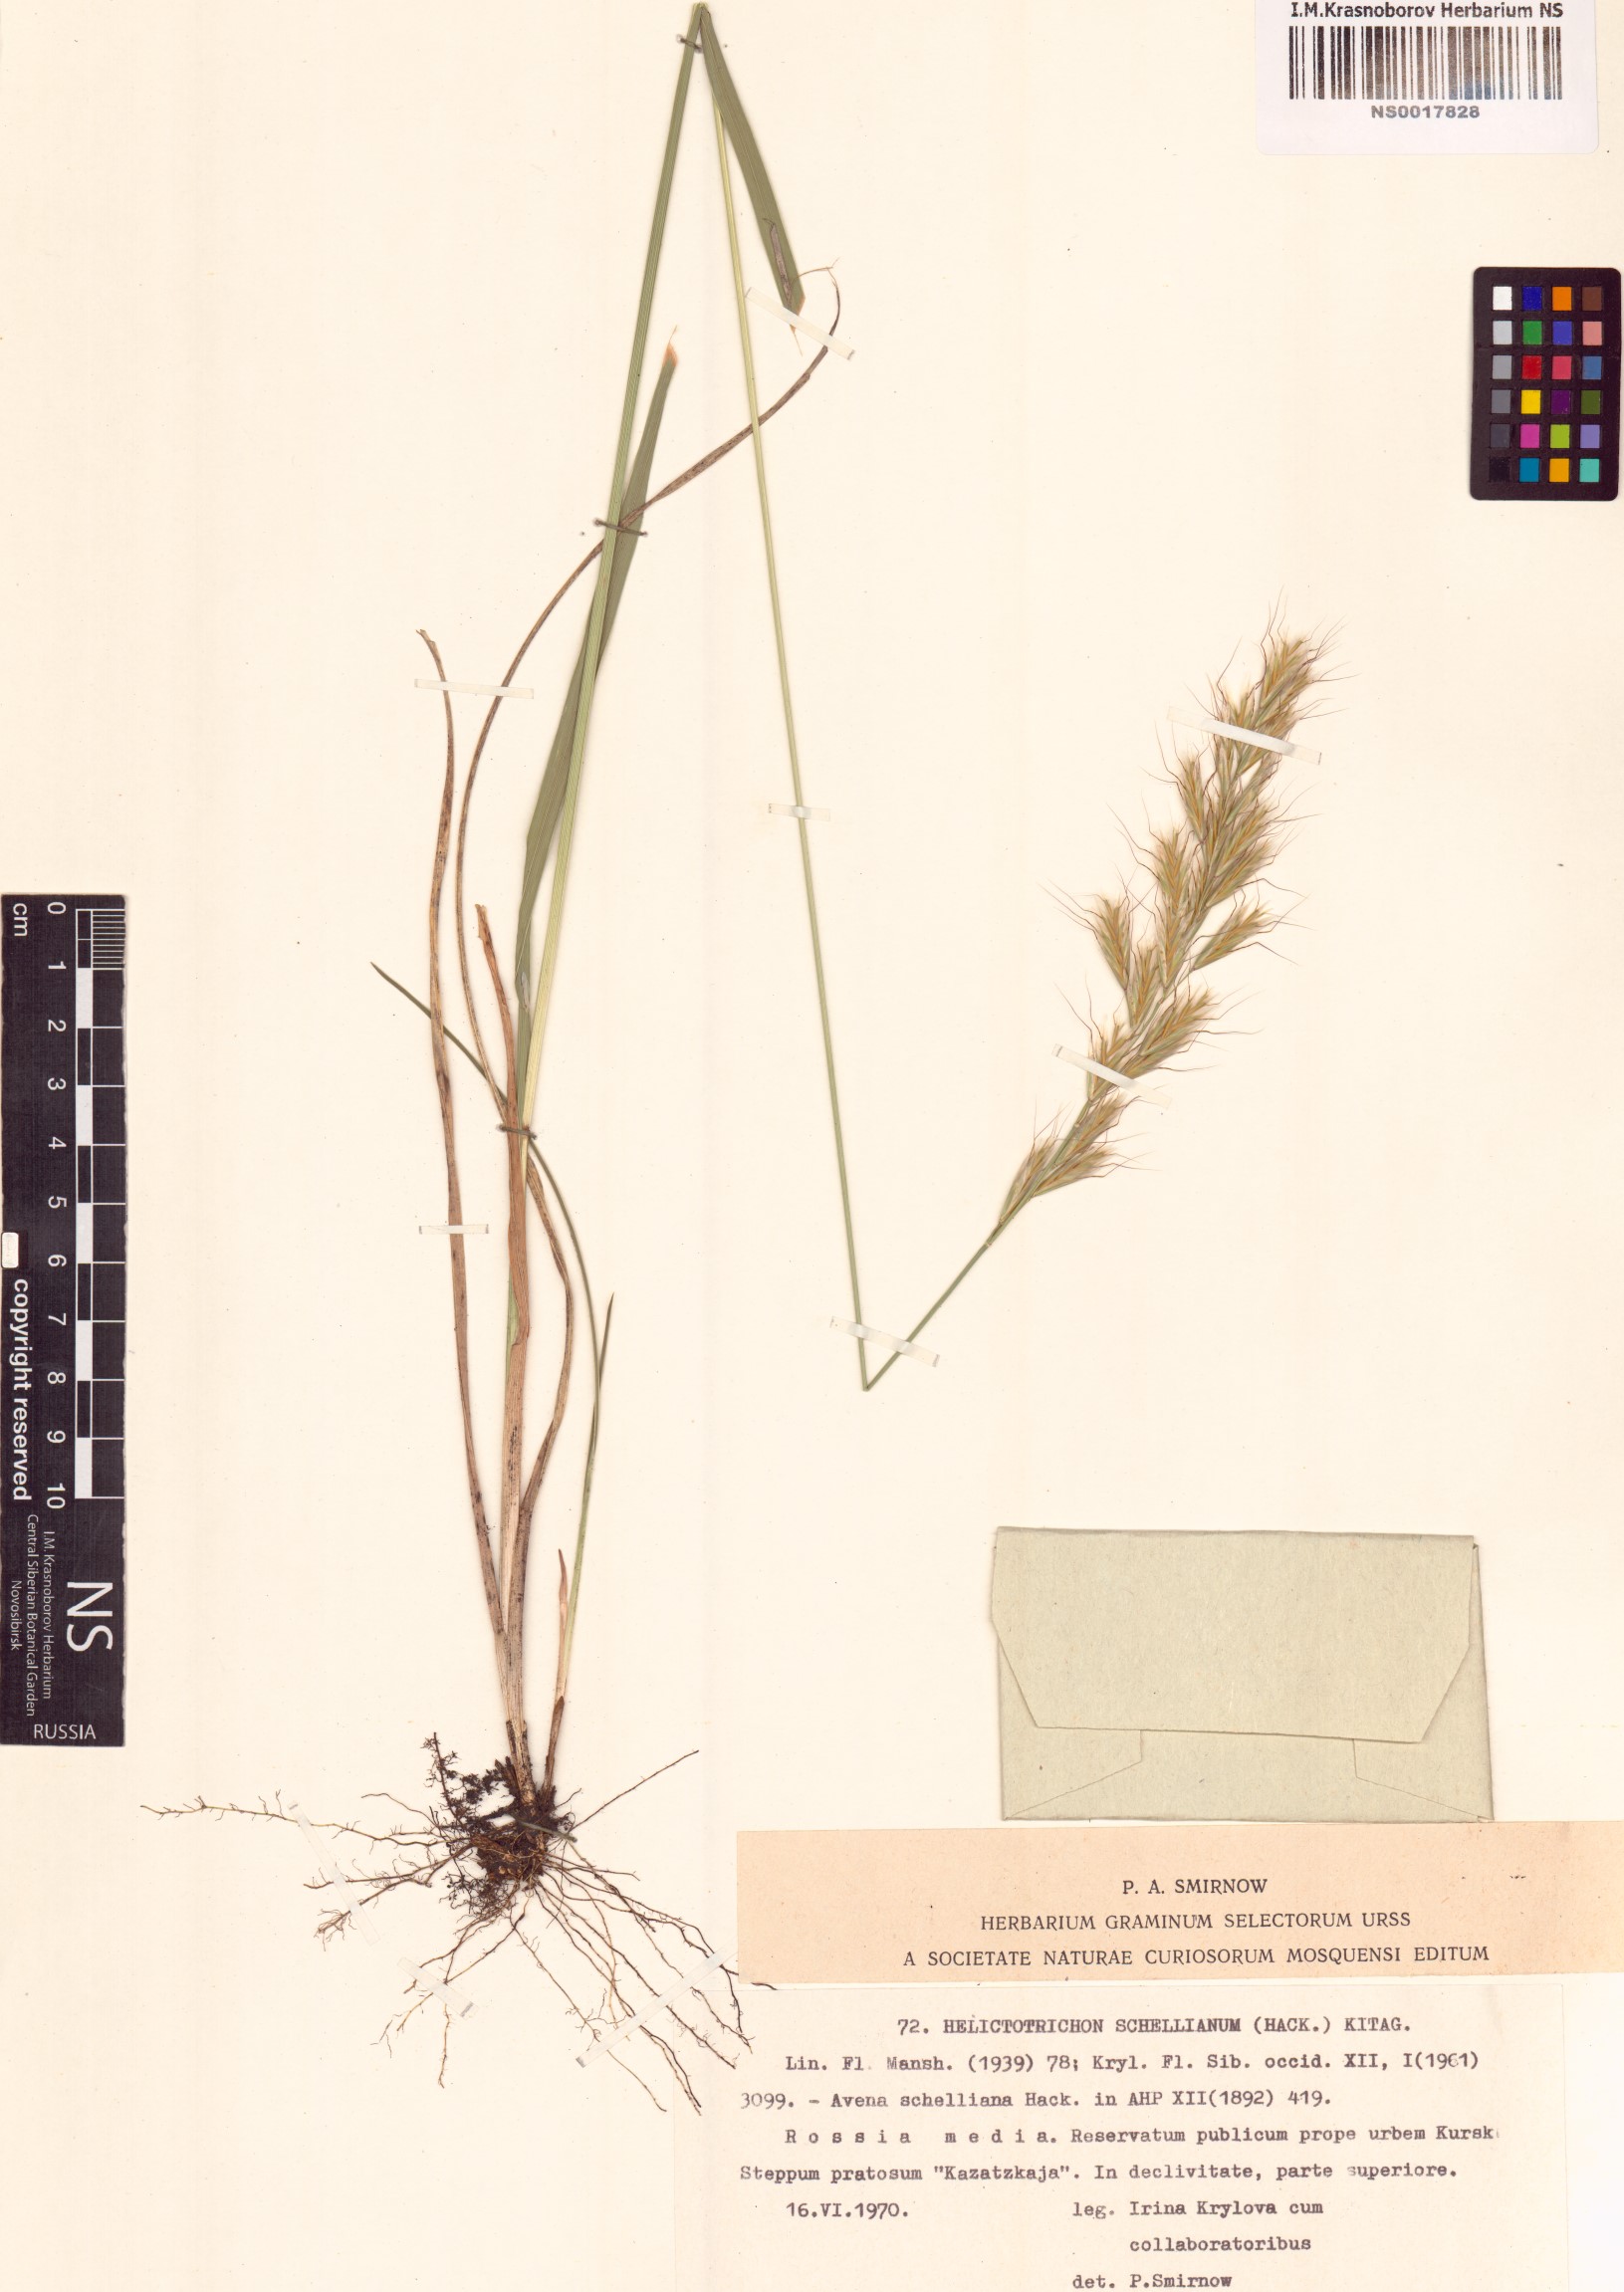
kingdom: Plantae
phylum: Tracheophyta
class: Liliopsida
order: Poales
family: Poaceae
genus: Helictochloa
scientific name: Helictochloa hookeri
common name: Hooker's alpine oatgrass
